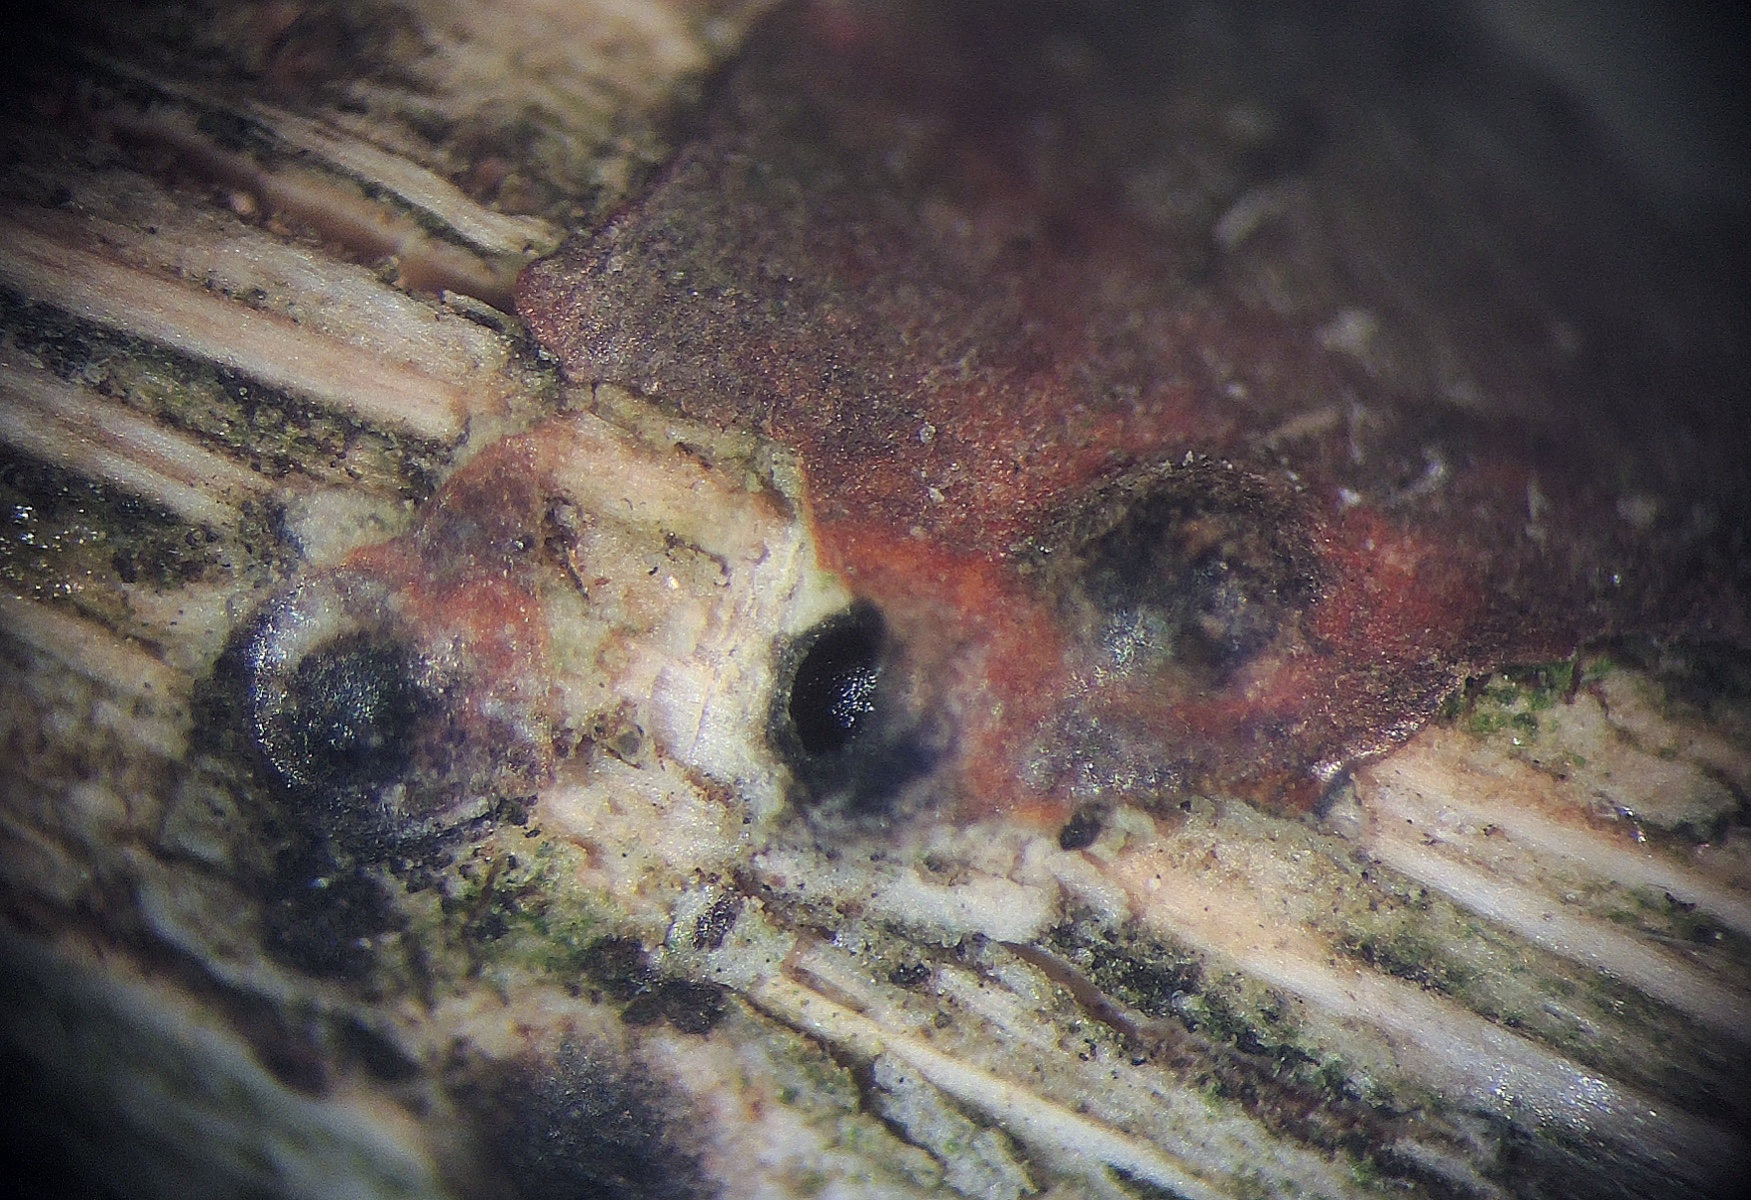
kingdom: Fungi
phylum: Ascomycota
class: Sordariomycetes
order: Amphisphaeriales
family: Clypeosphaeriaceae
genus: Clypeosphaeria
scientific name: Clypeosphaeria mamillana
